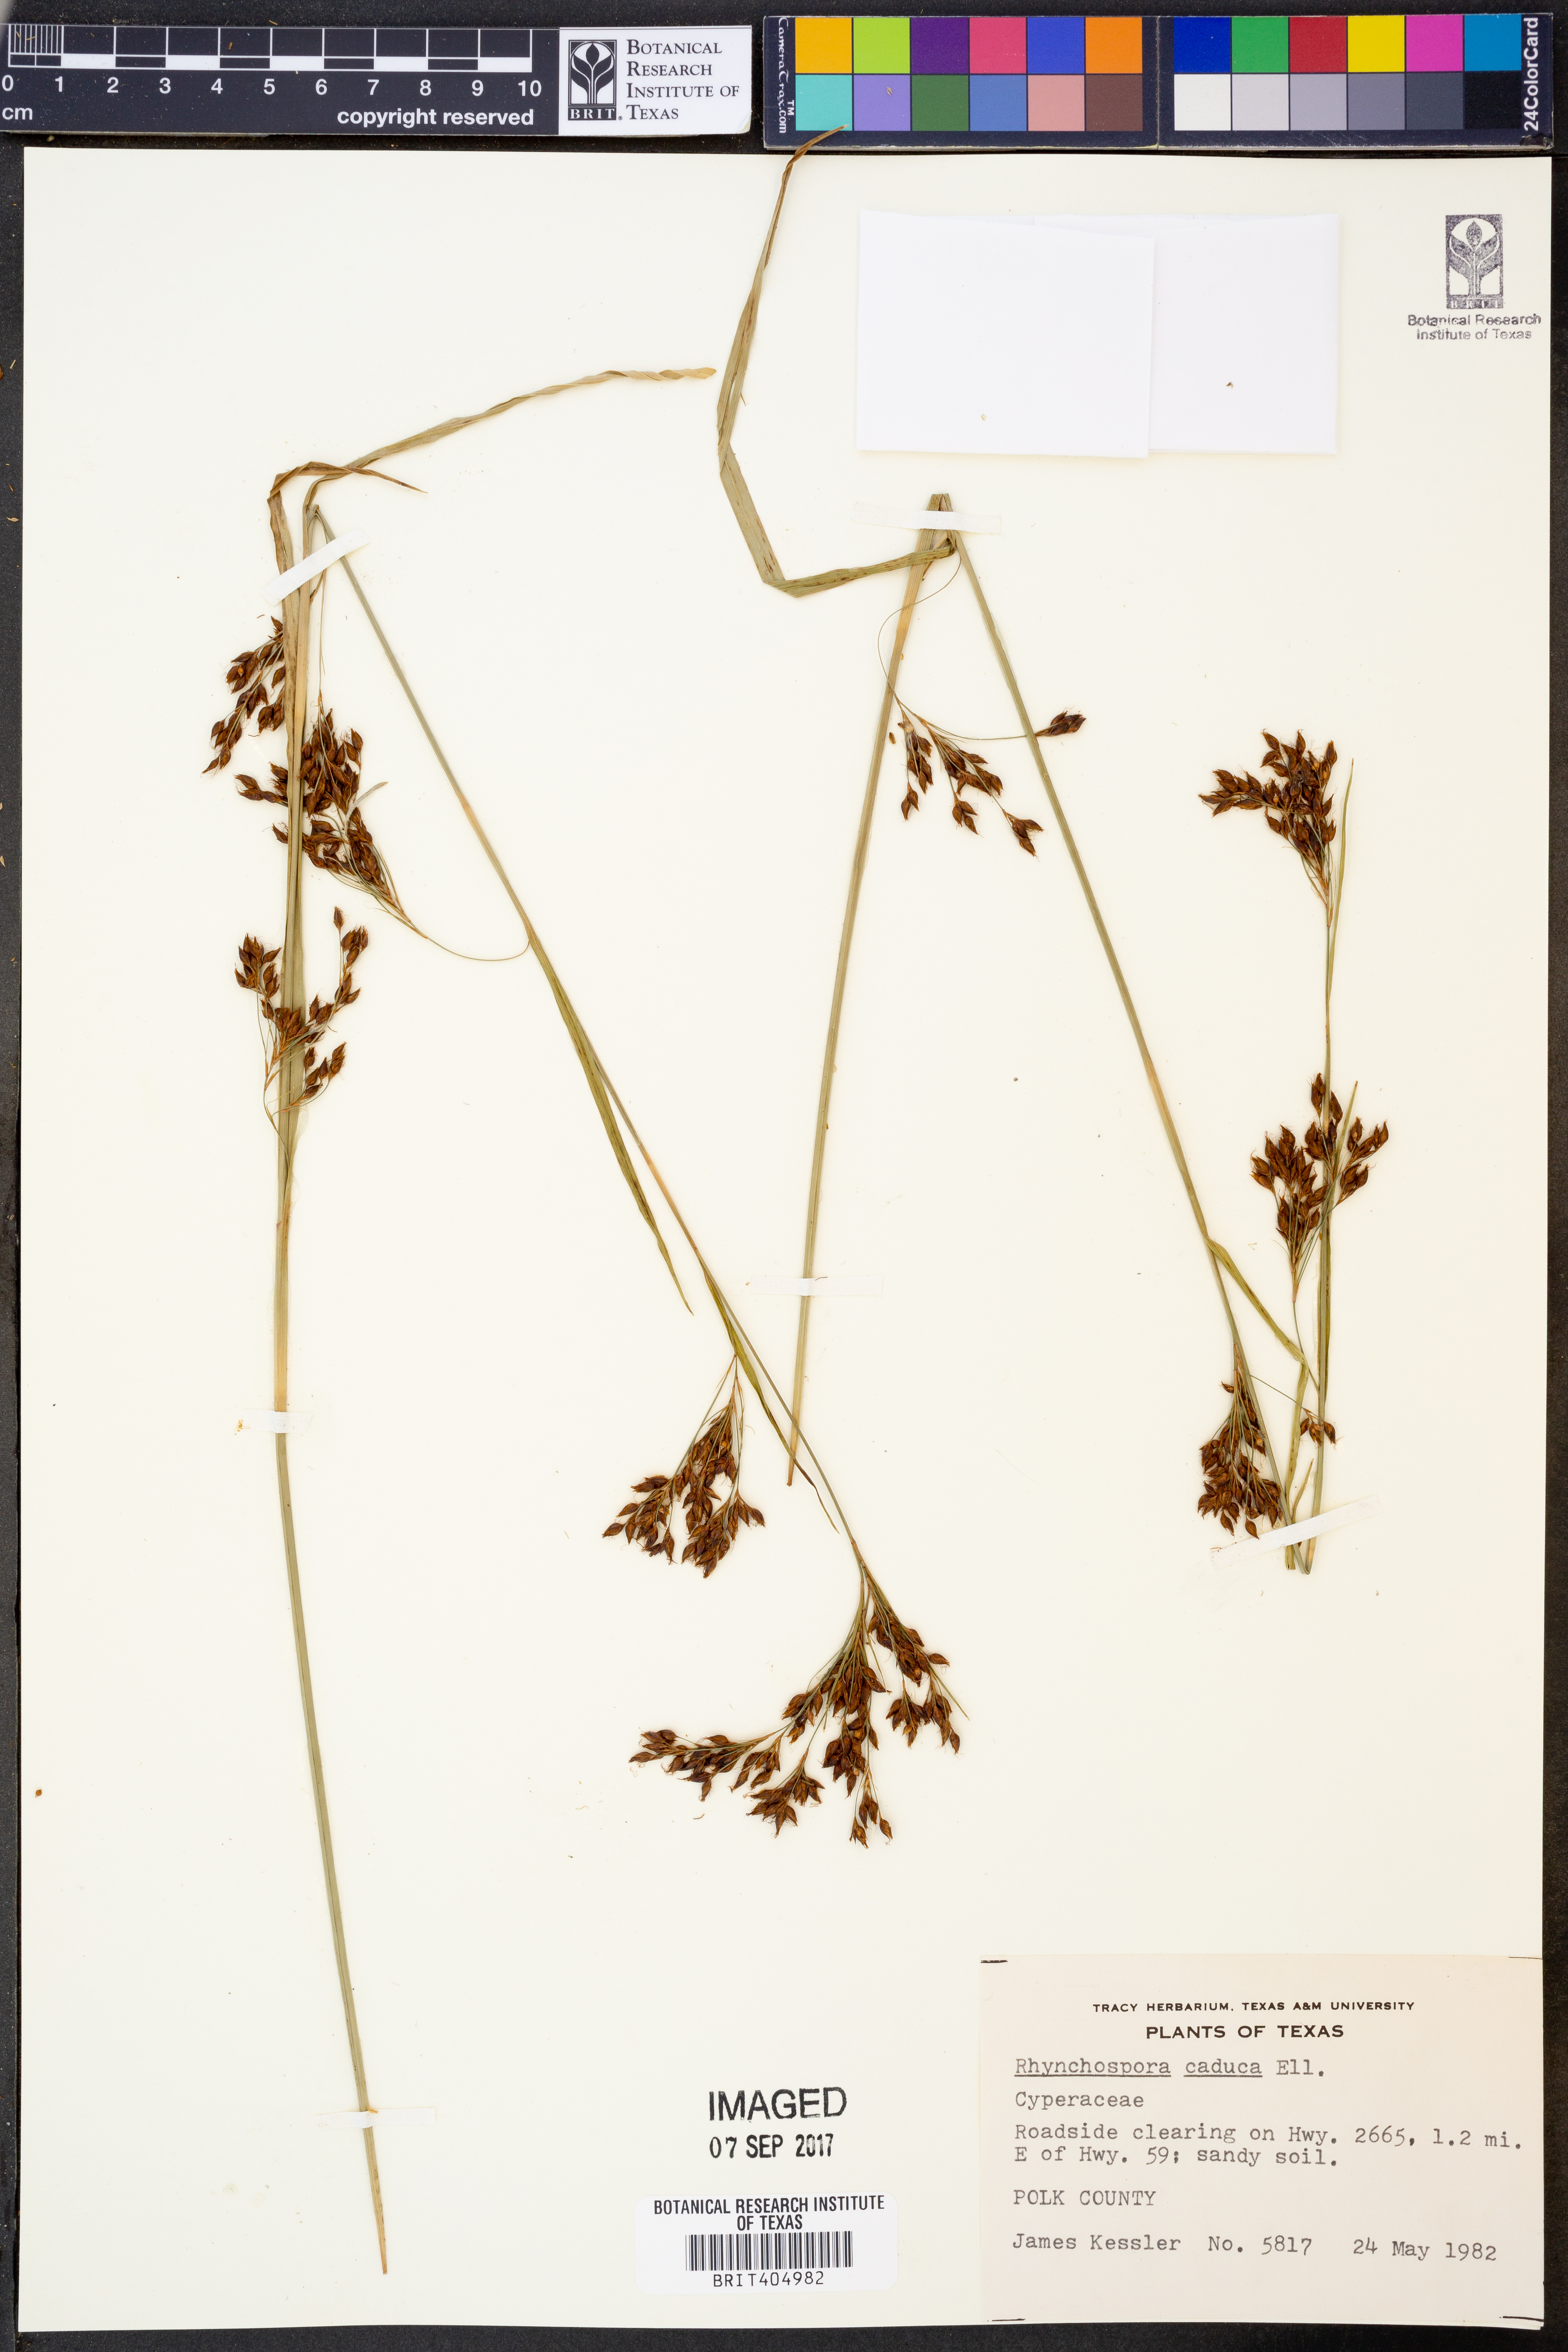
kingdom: Plantae
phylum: Tracheophyta
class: Liliopsida
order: Poales
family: Cyperaceae
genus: Rhynchospora
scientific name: Rhynchospora caduca
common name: Anglestem beaksedge
